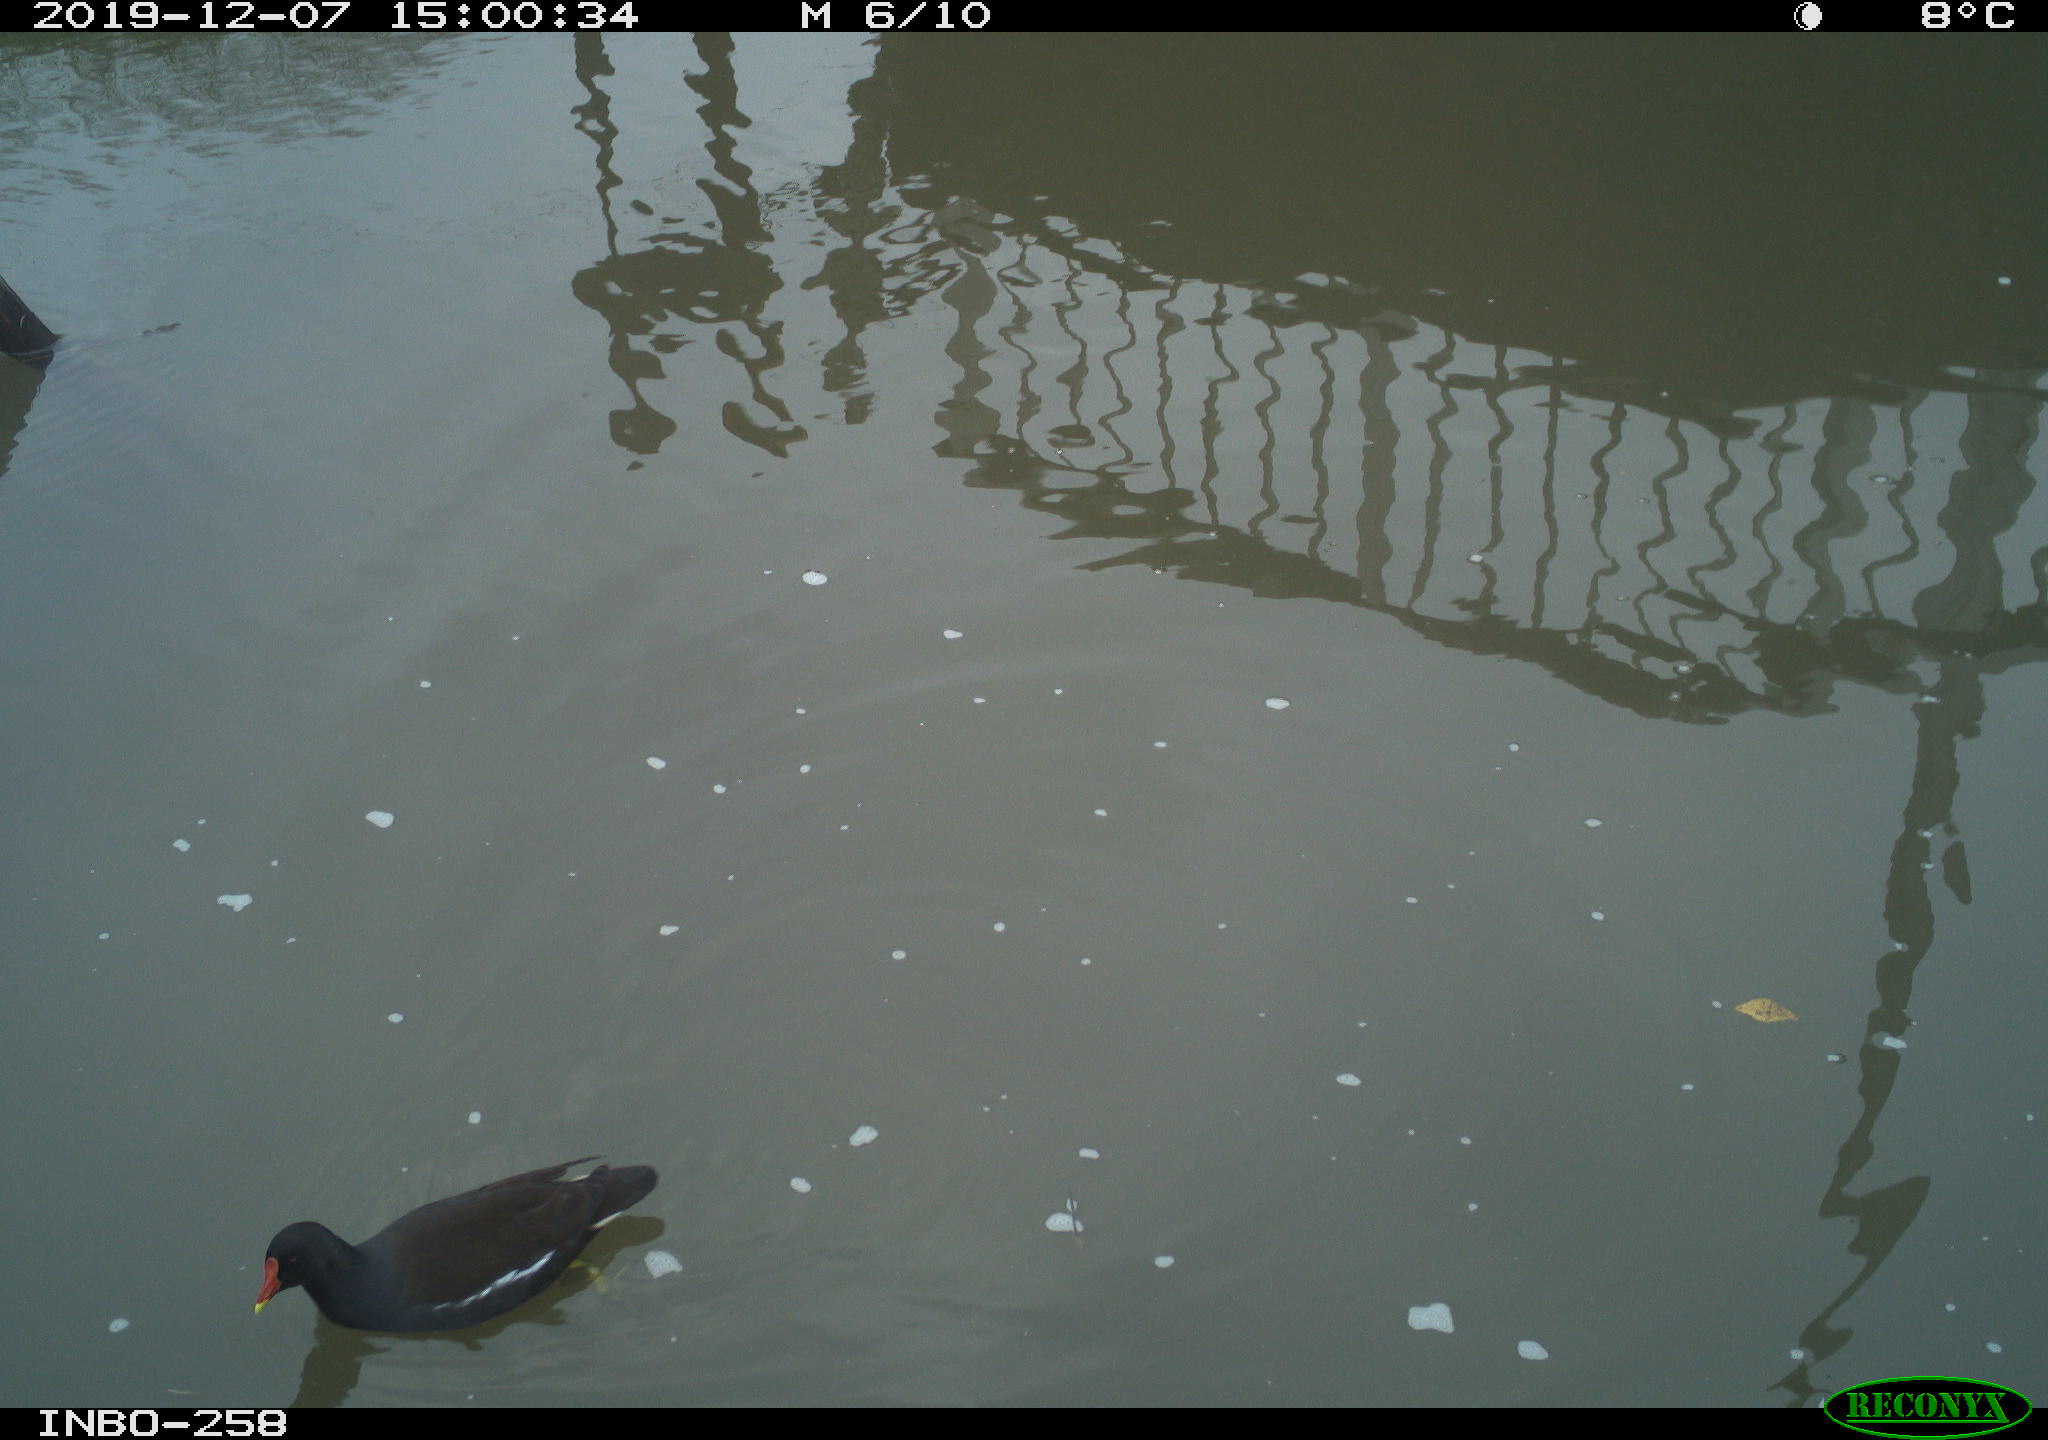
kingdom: Animalia
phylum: Chordata
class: Aves
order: Gruiformes
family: Rallidae
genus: Gallinula
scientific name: Gallinula chloropus
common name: Common moorhen
